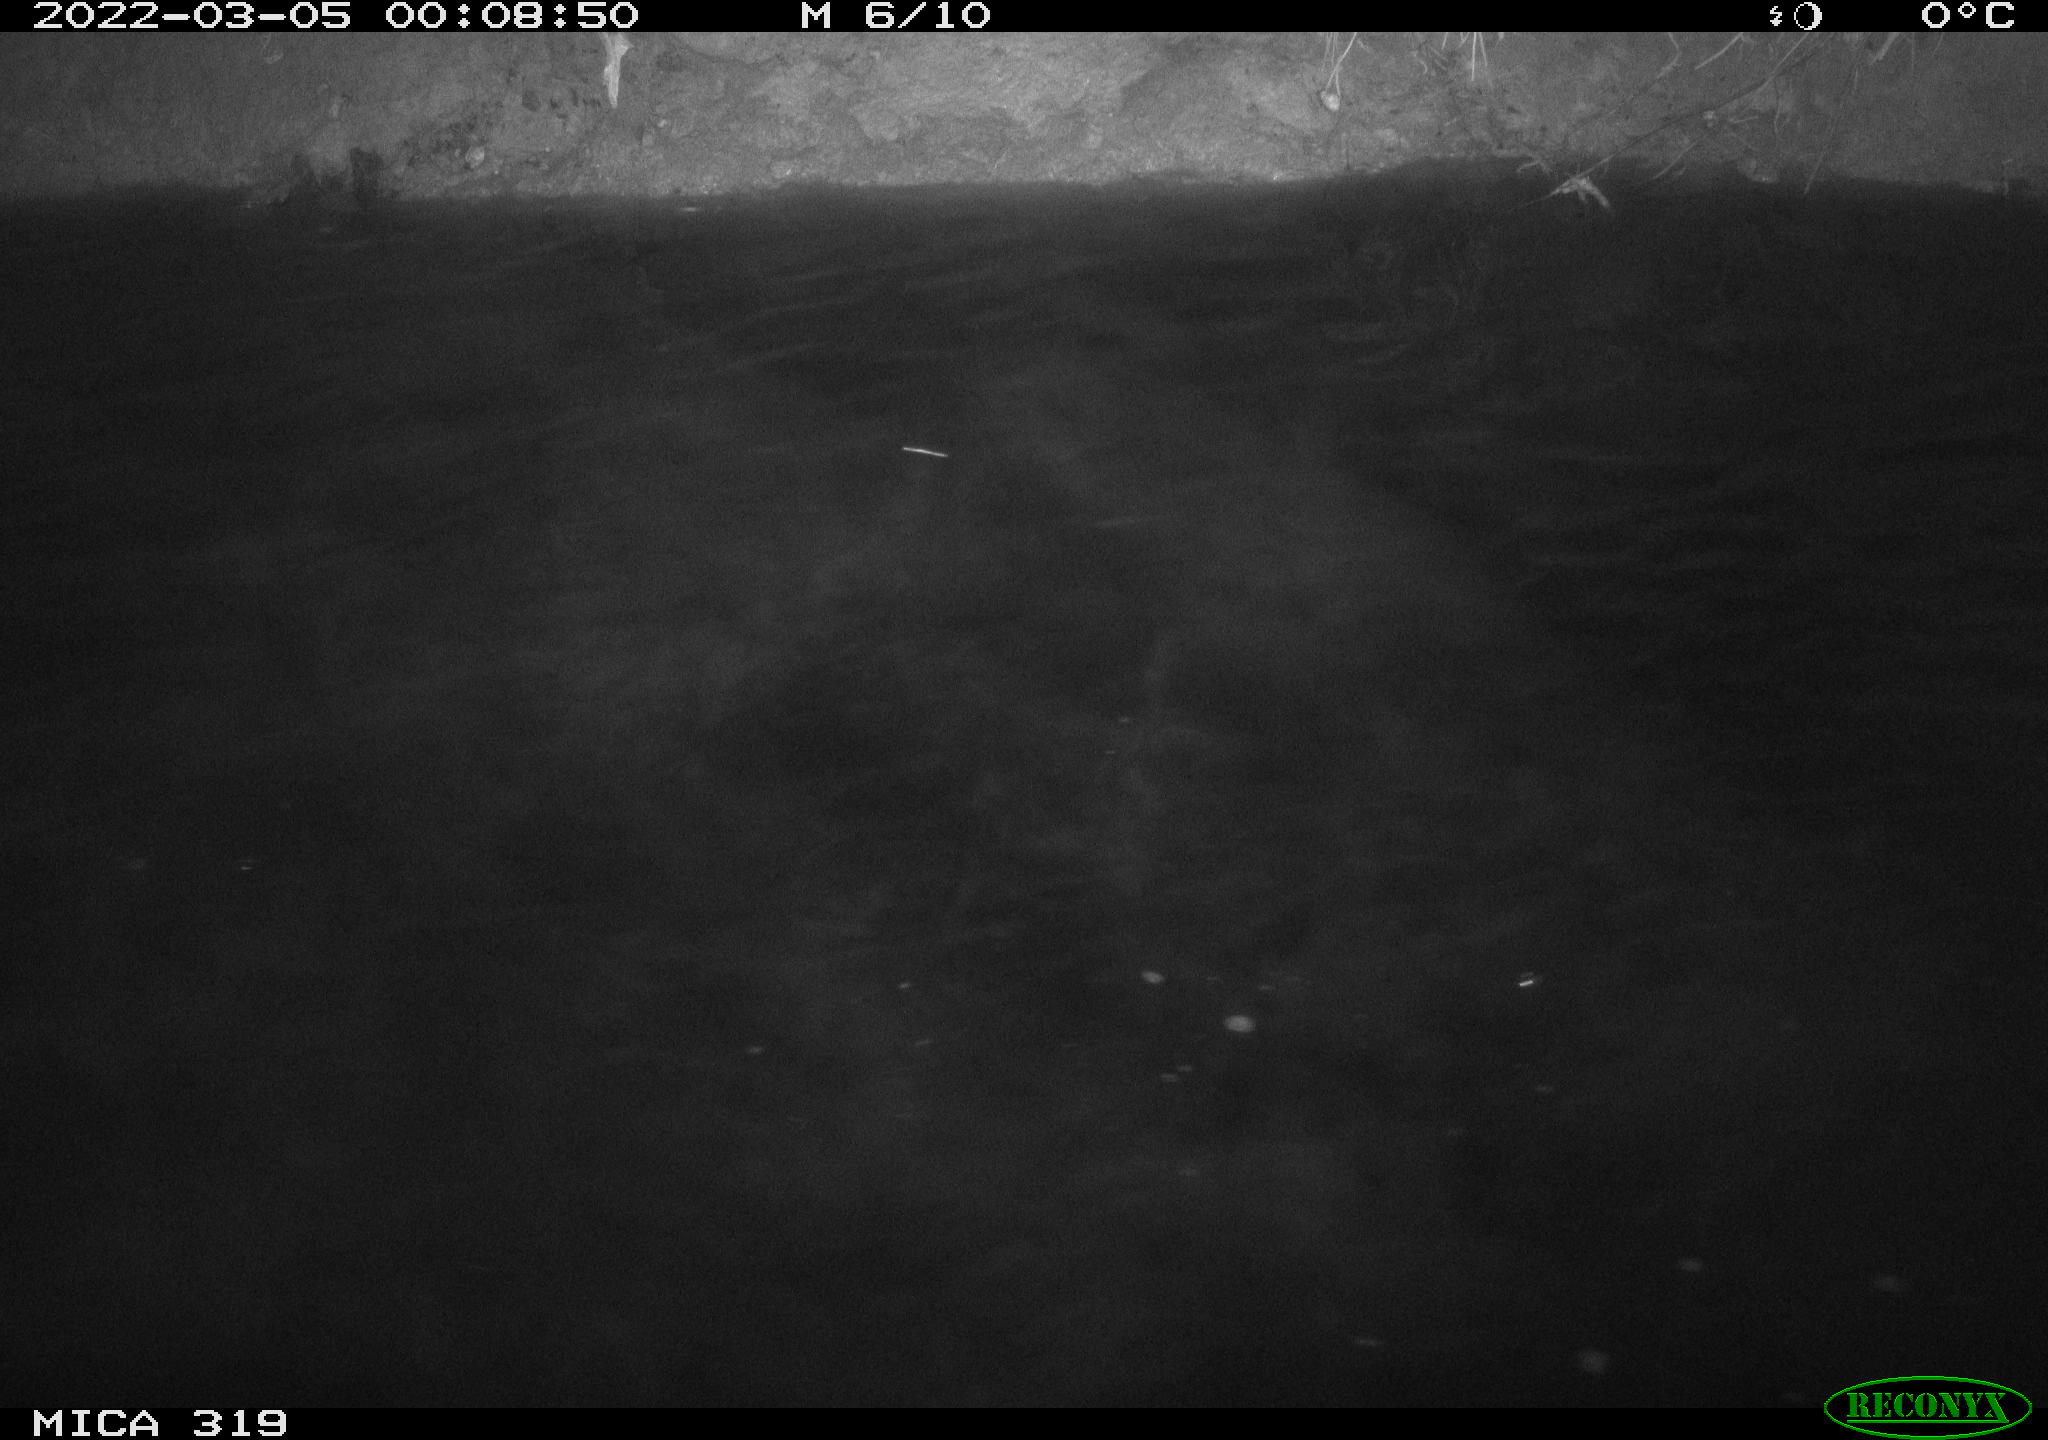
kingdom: Animalia
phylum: Chordata
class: Aves
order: Anseriformes
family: Anatidae
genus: Anas
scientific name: Anas platyrhynchos
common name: Mallard
